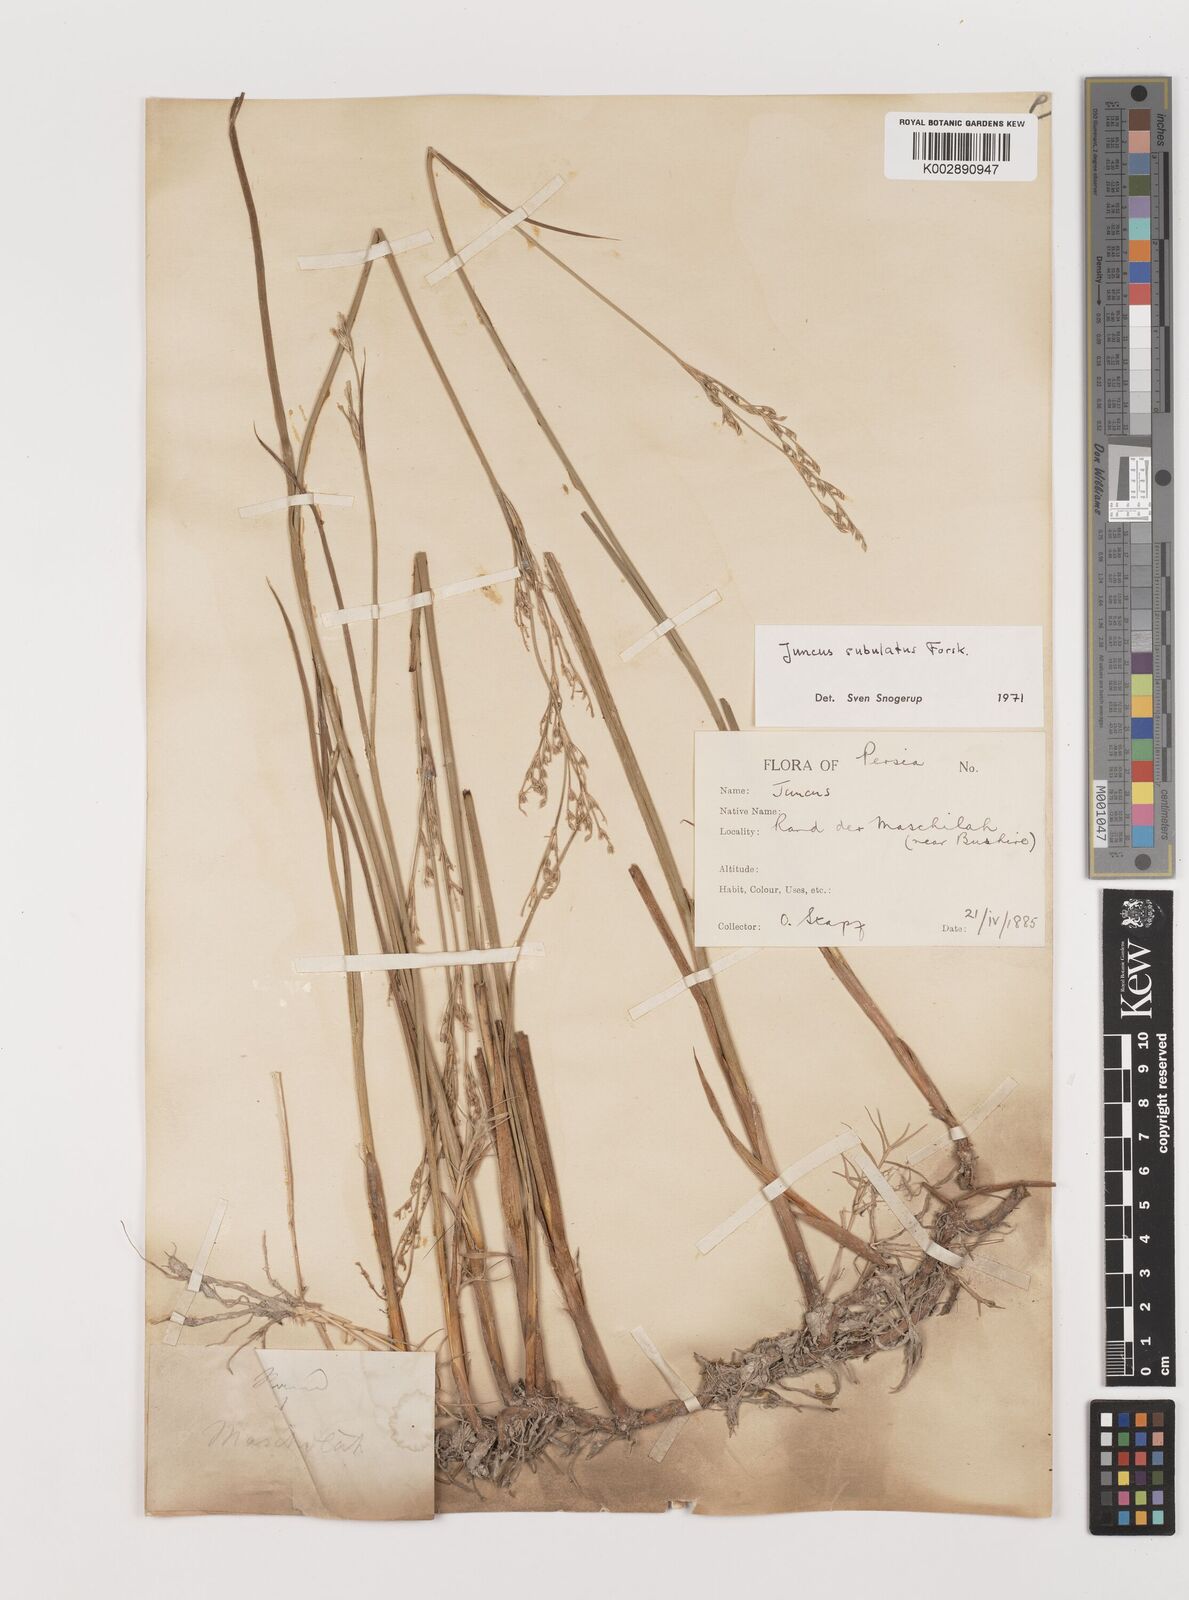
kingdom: Plantae
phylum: Tracheophyta
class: Liliopsida
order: Poales
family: Juncaceae
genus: Juncus
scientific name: Juncus subulatus
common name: Somerset rush
